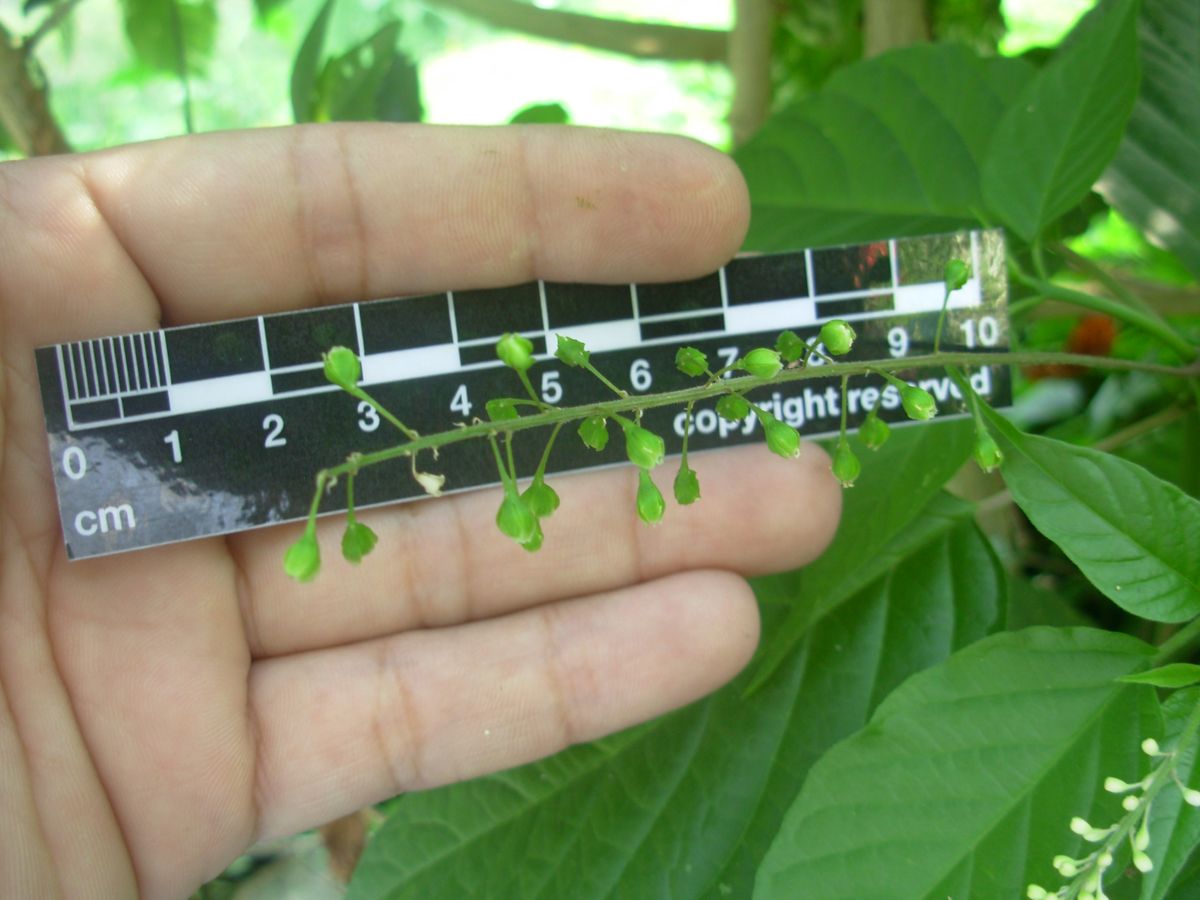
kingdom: Plantae
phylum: Tracheophyta
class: Magnoliopsida
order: Caryophyllales
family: Phytolaccaceae
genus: Rivina
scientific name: Rivina humilis
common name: Rougeplant
